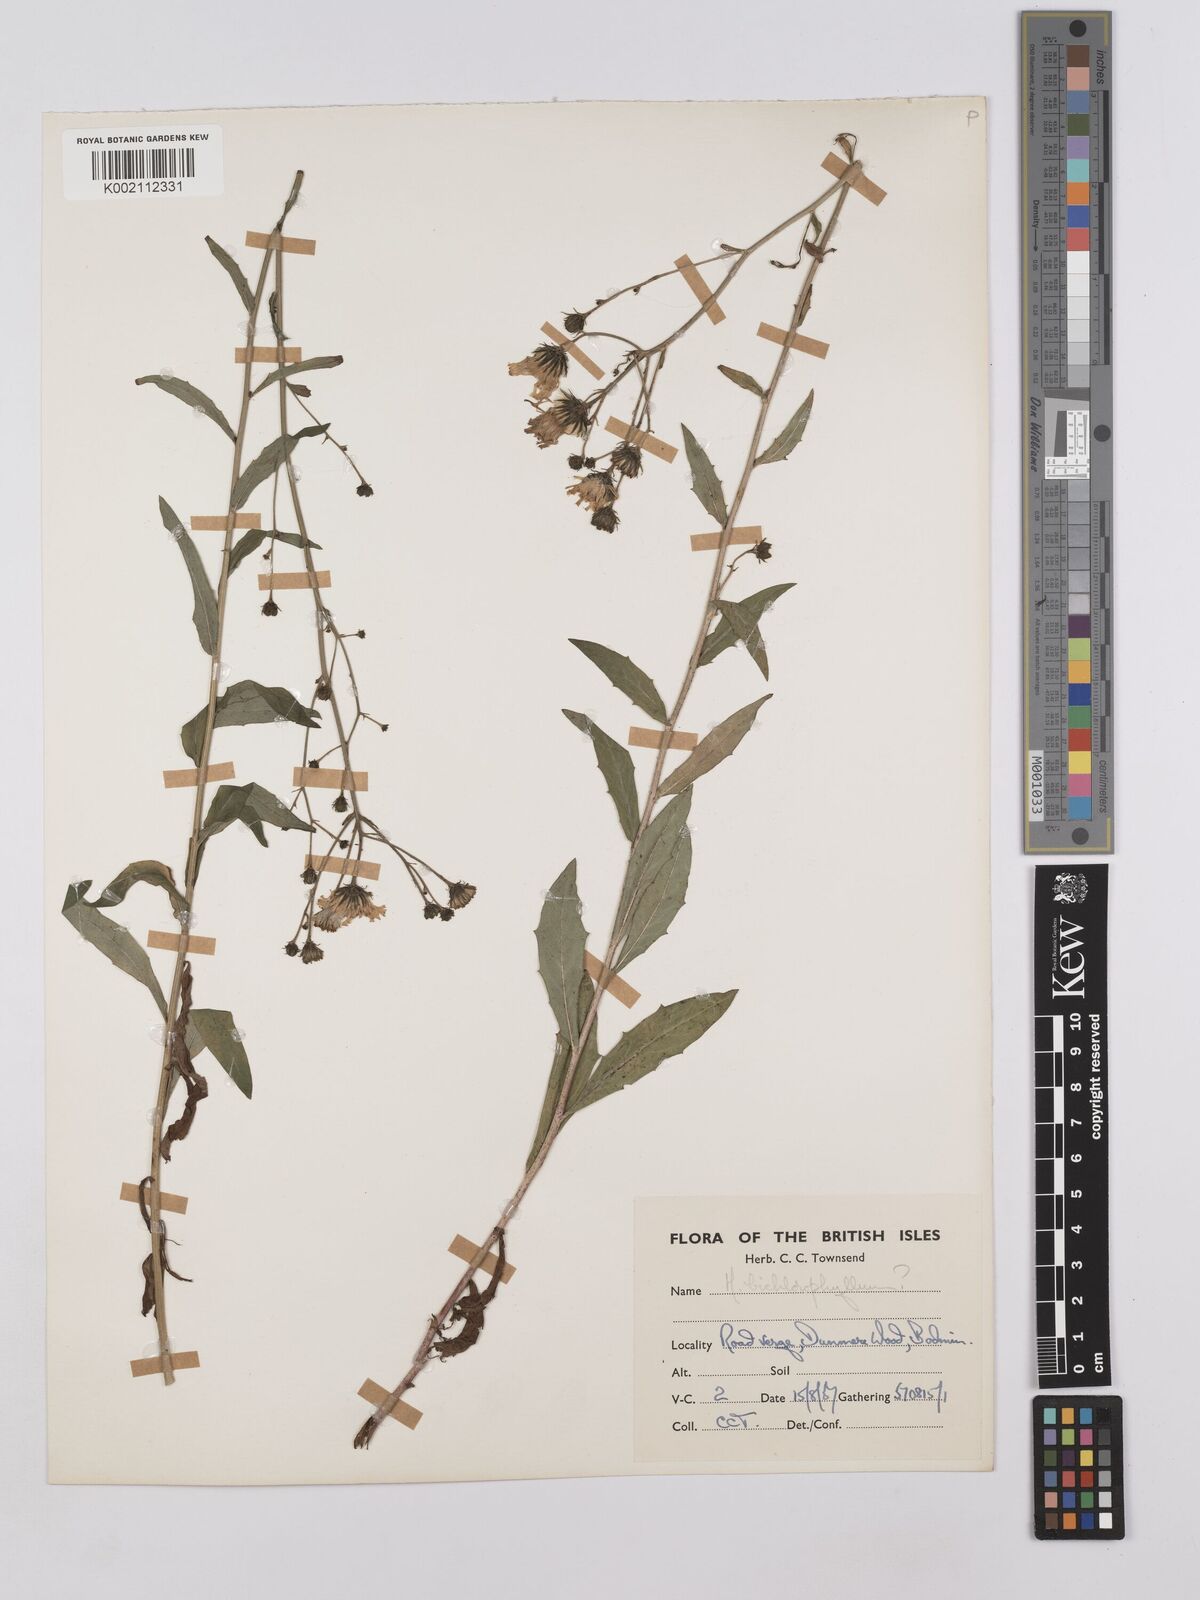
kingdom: Plantae
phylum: Tracheophyta
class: Magnoliopsida
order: Asterales
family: Asteraceae
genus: Hieracium
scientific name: Hieracium umbellatum
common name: Northern hawkweed
